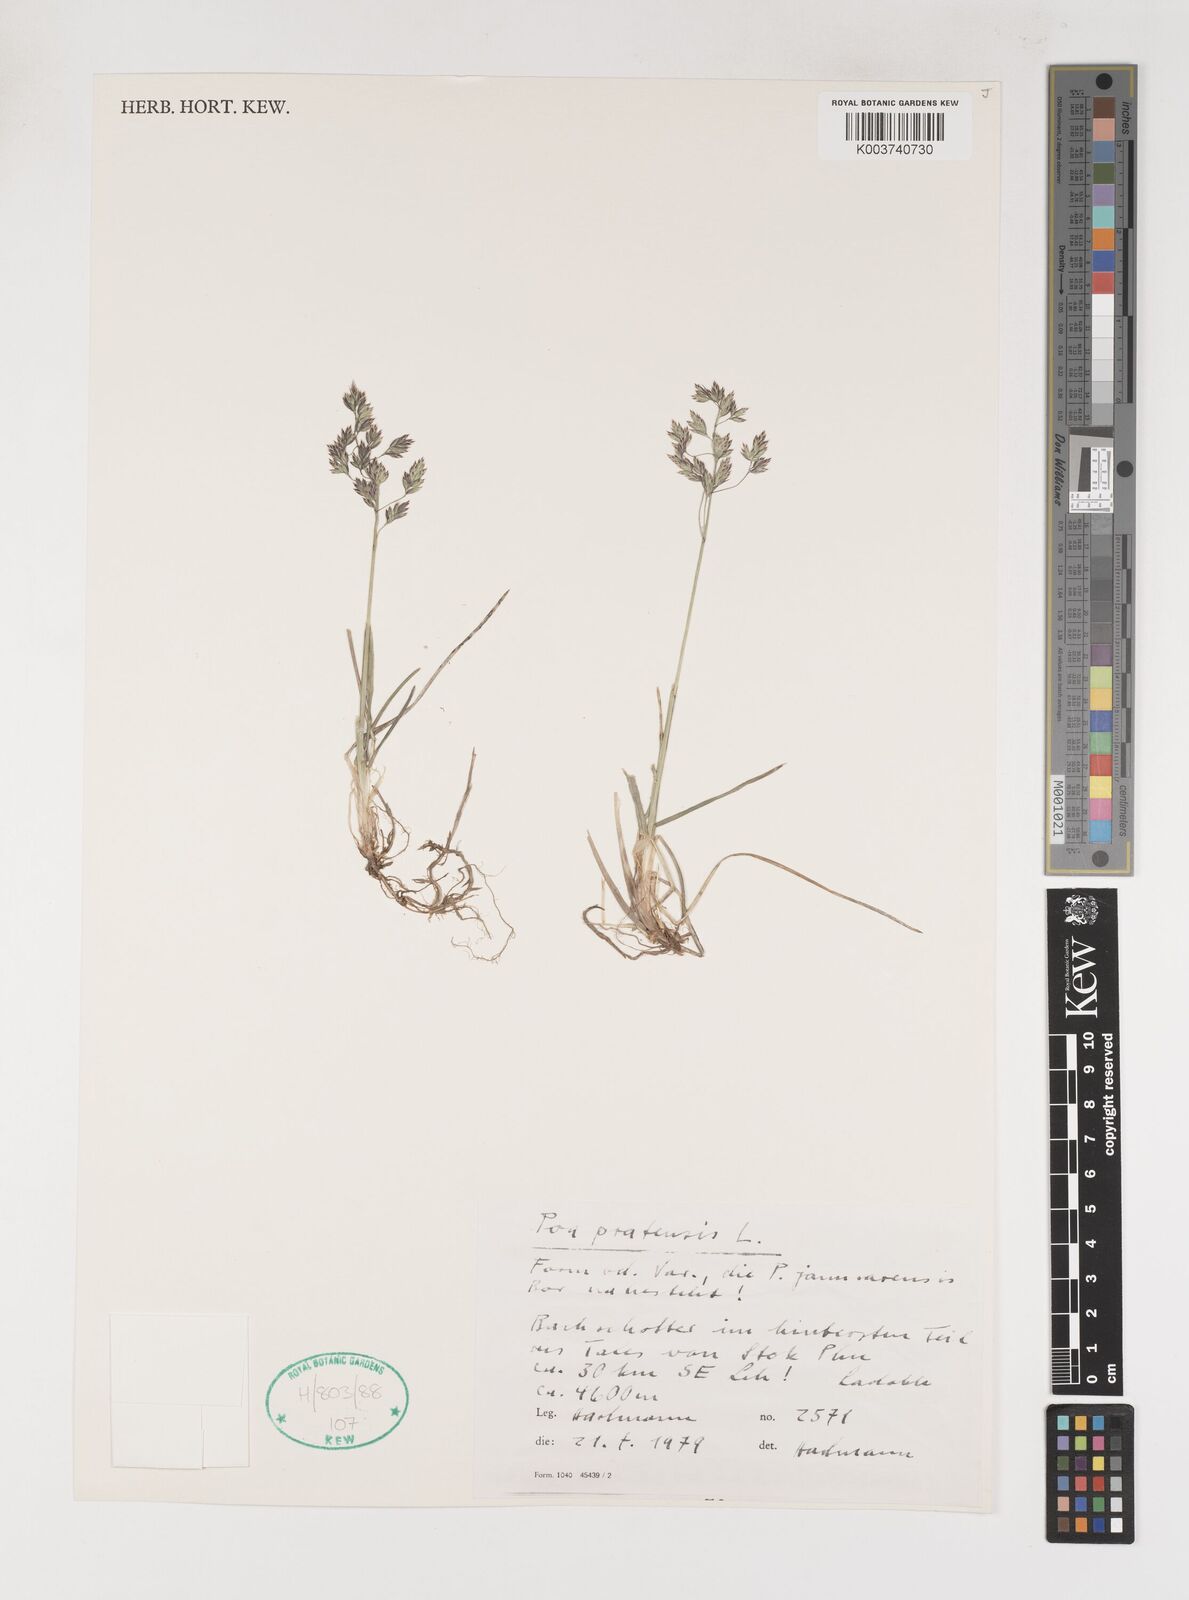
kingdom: Plantae
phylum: Tracheophyta
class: Liliopsida
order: Poales
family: Poaceae
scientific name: Poaceae
